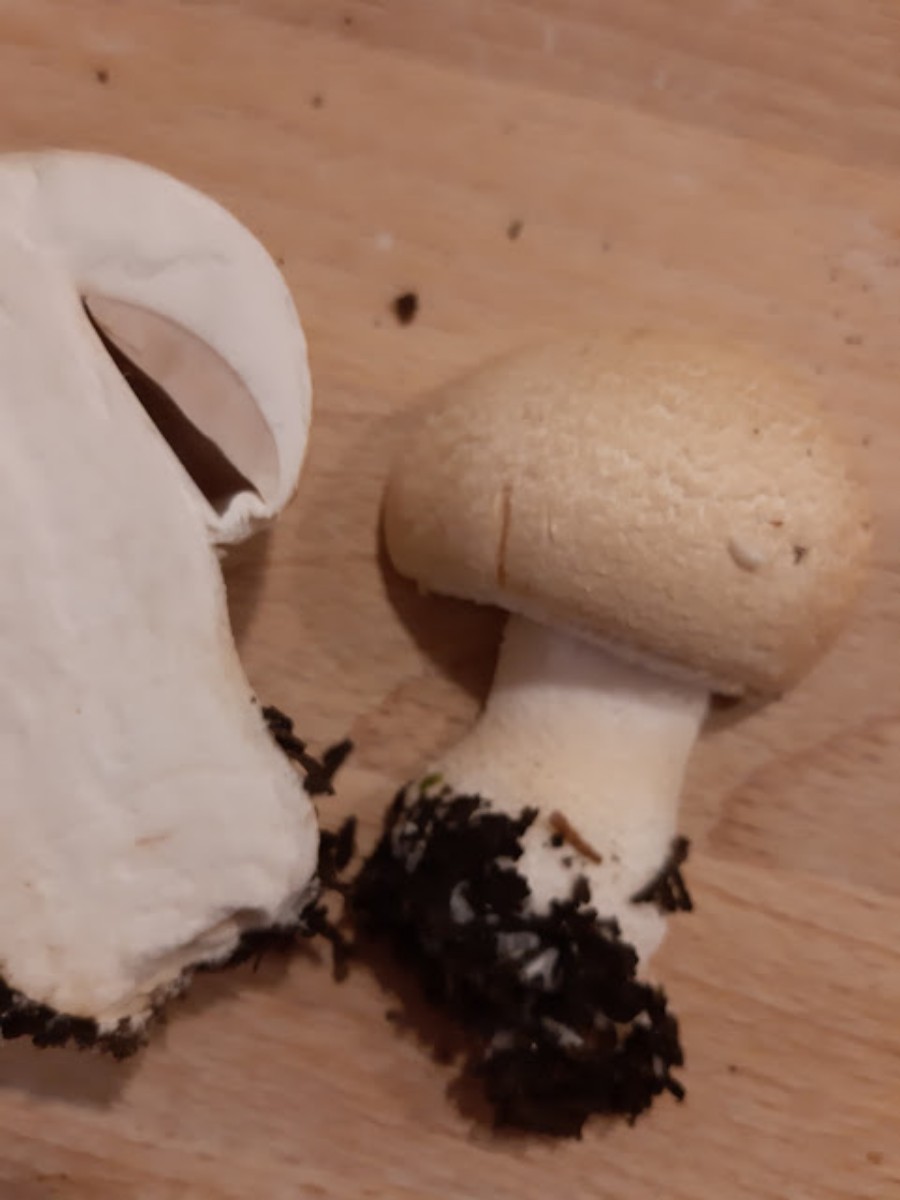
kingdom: Fungi
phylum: Basidiomycota
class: Agaricomycetes
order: Agaricales
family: Agaricaceae
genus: Agaricus
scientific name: Agaricus augustus
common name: prægtig champignon
